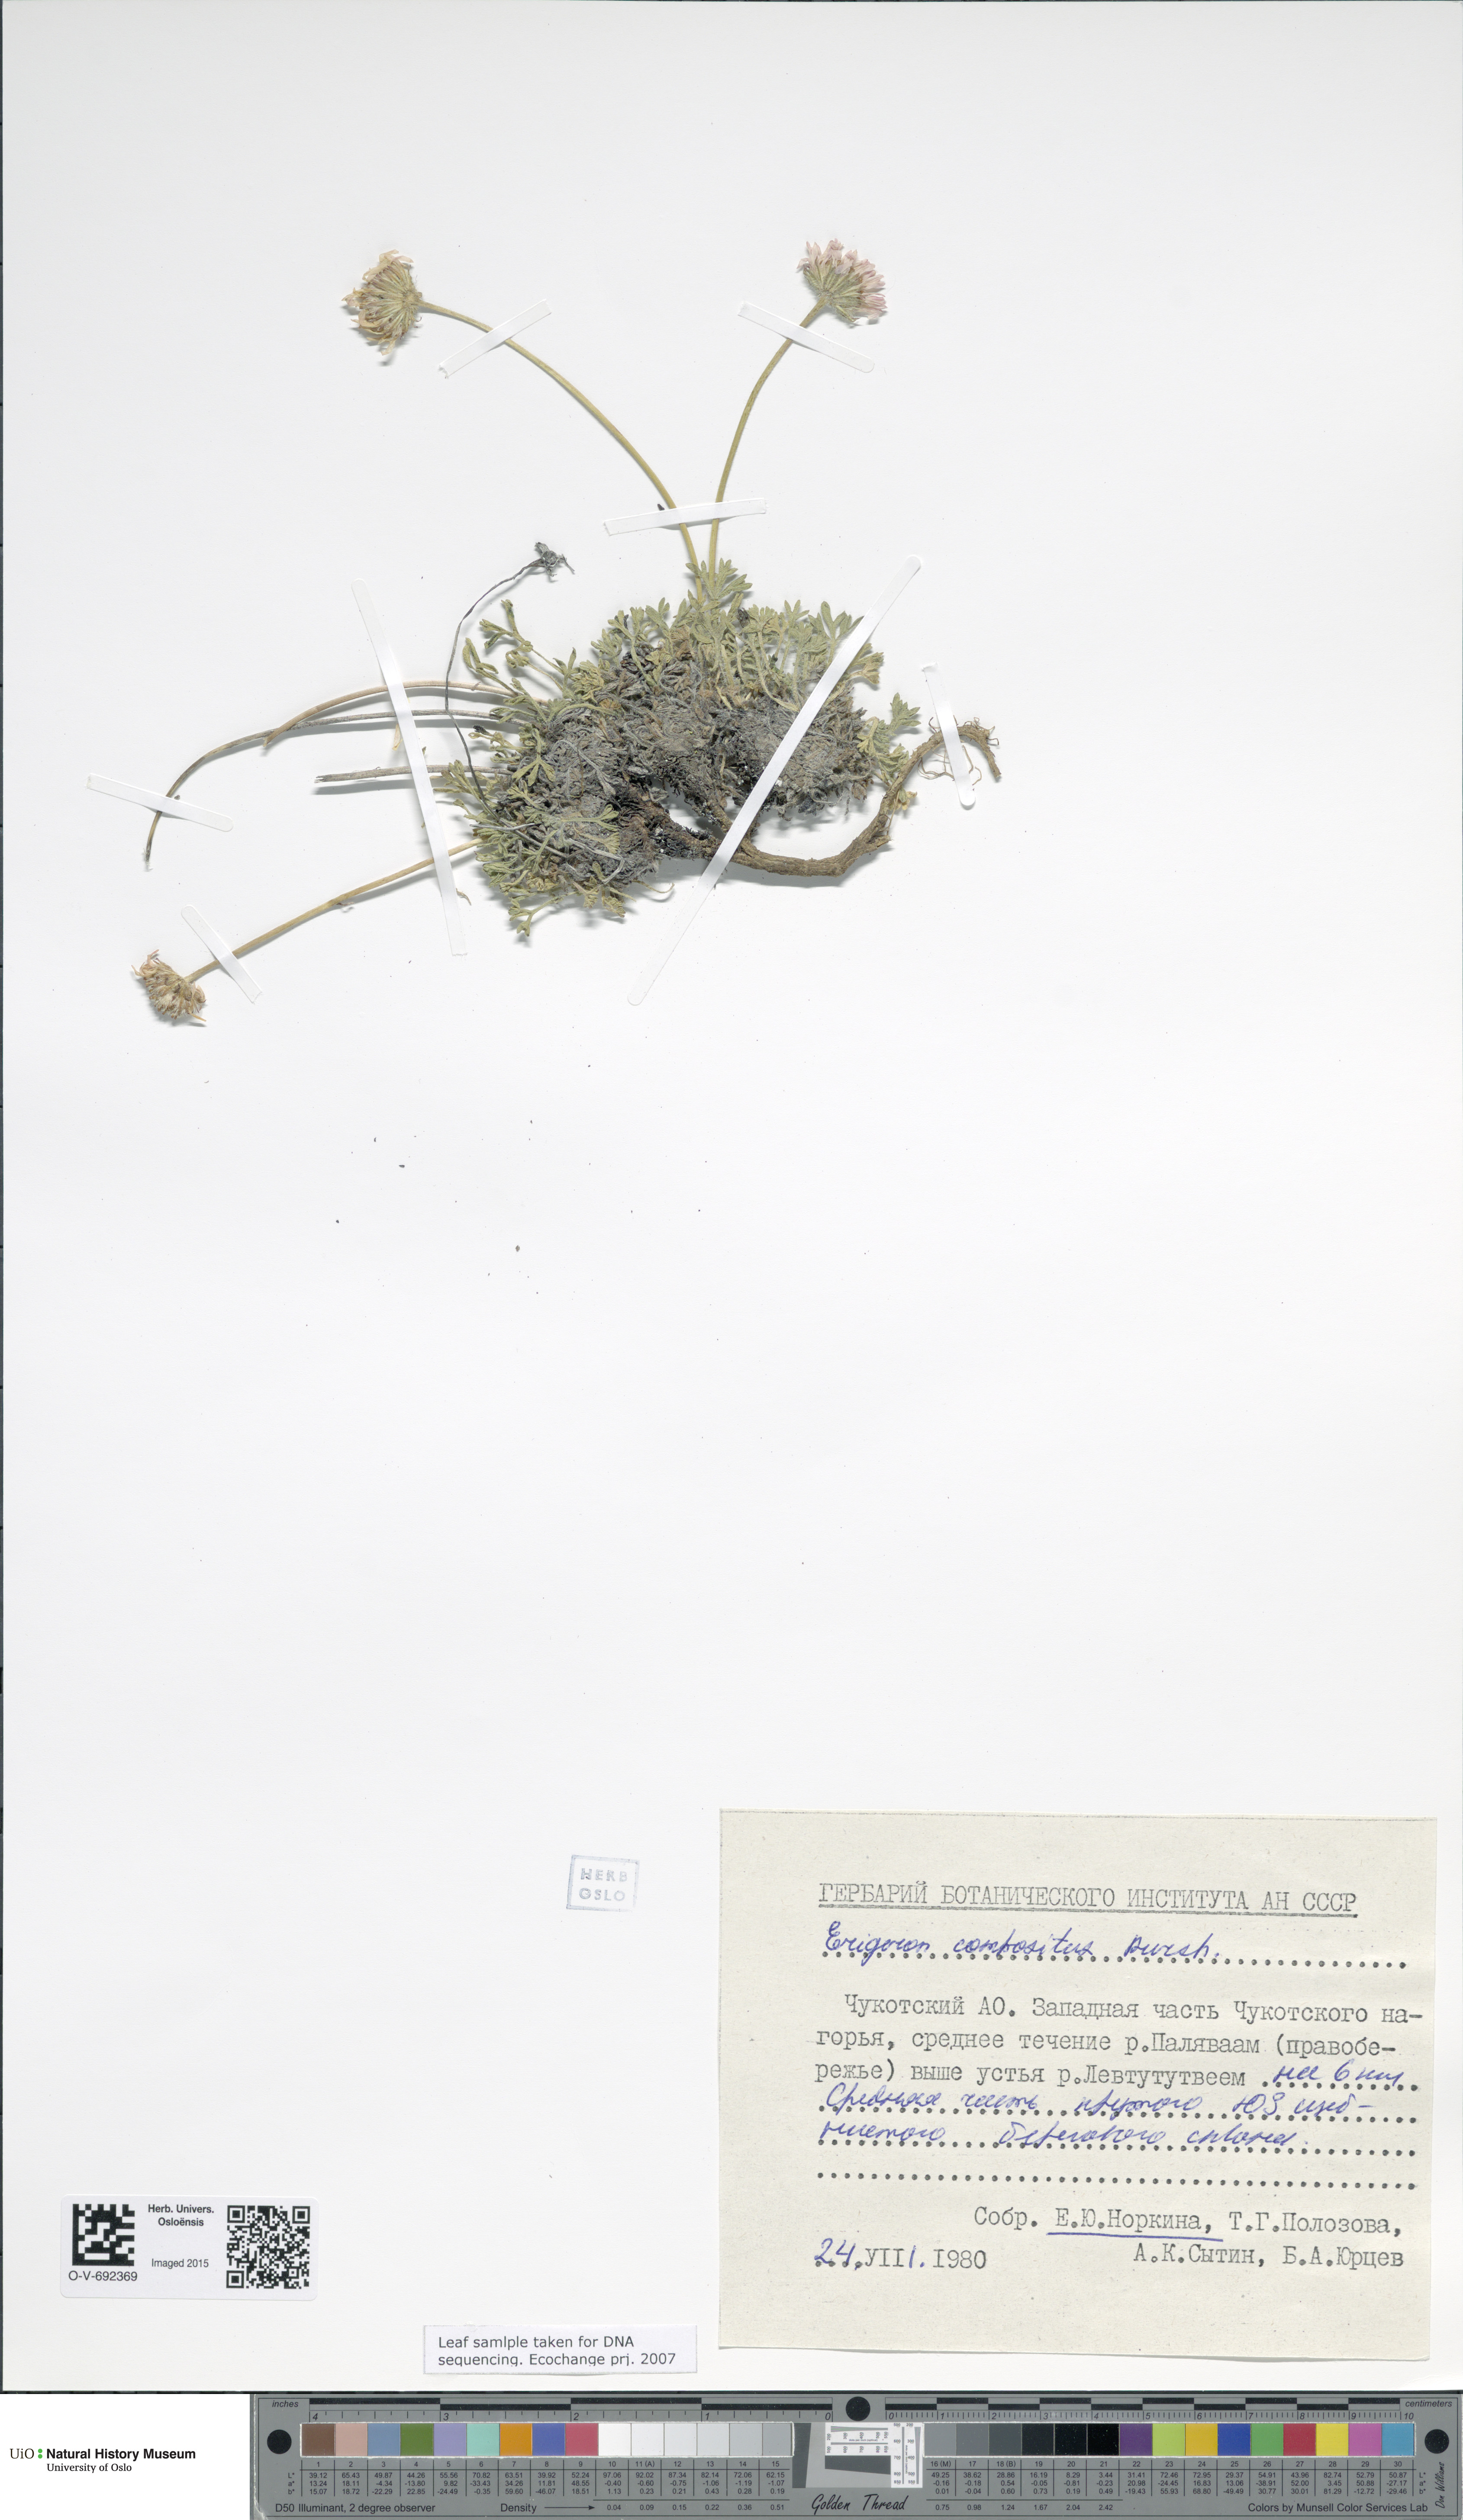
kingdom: Plantae
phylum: Tracheophyta
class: Magnoliopsida
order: Asterales
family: Asteraceae
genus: Erigeron
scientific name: Erigeron compositus
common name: Dwarf mountain fleabane
